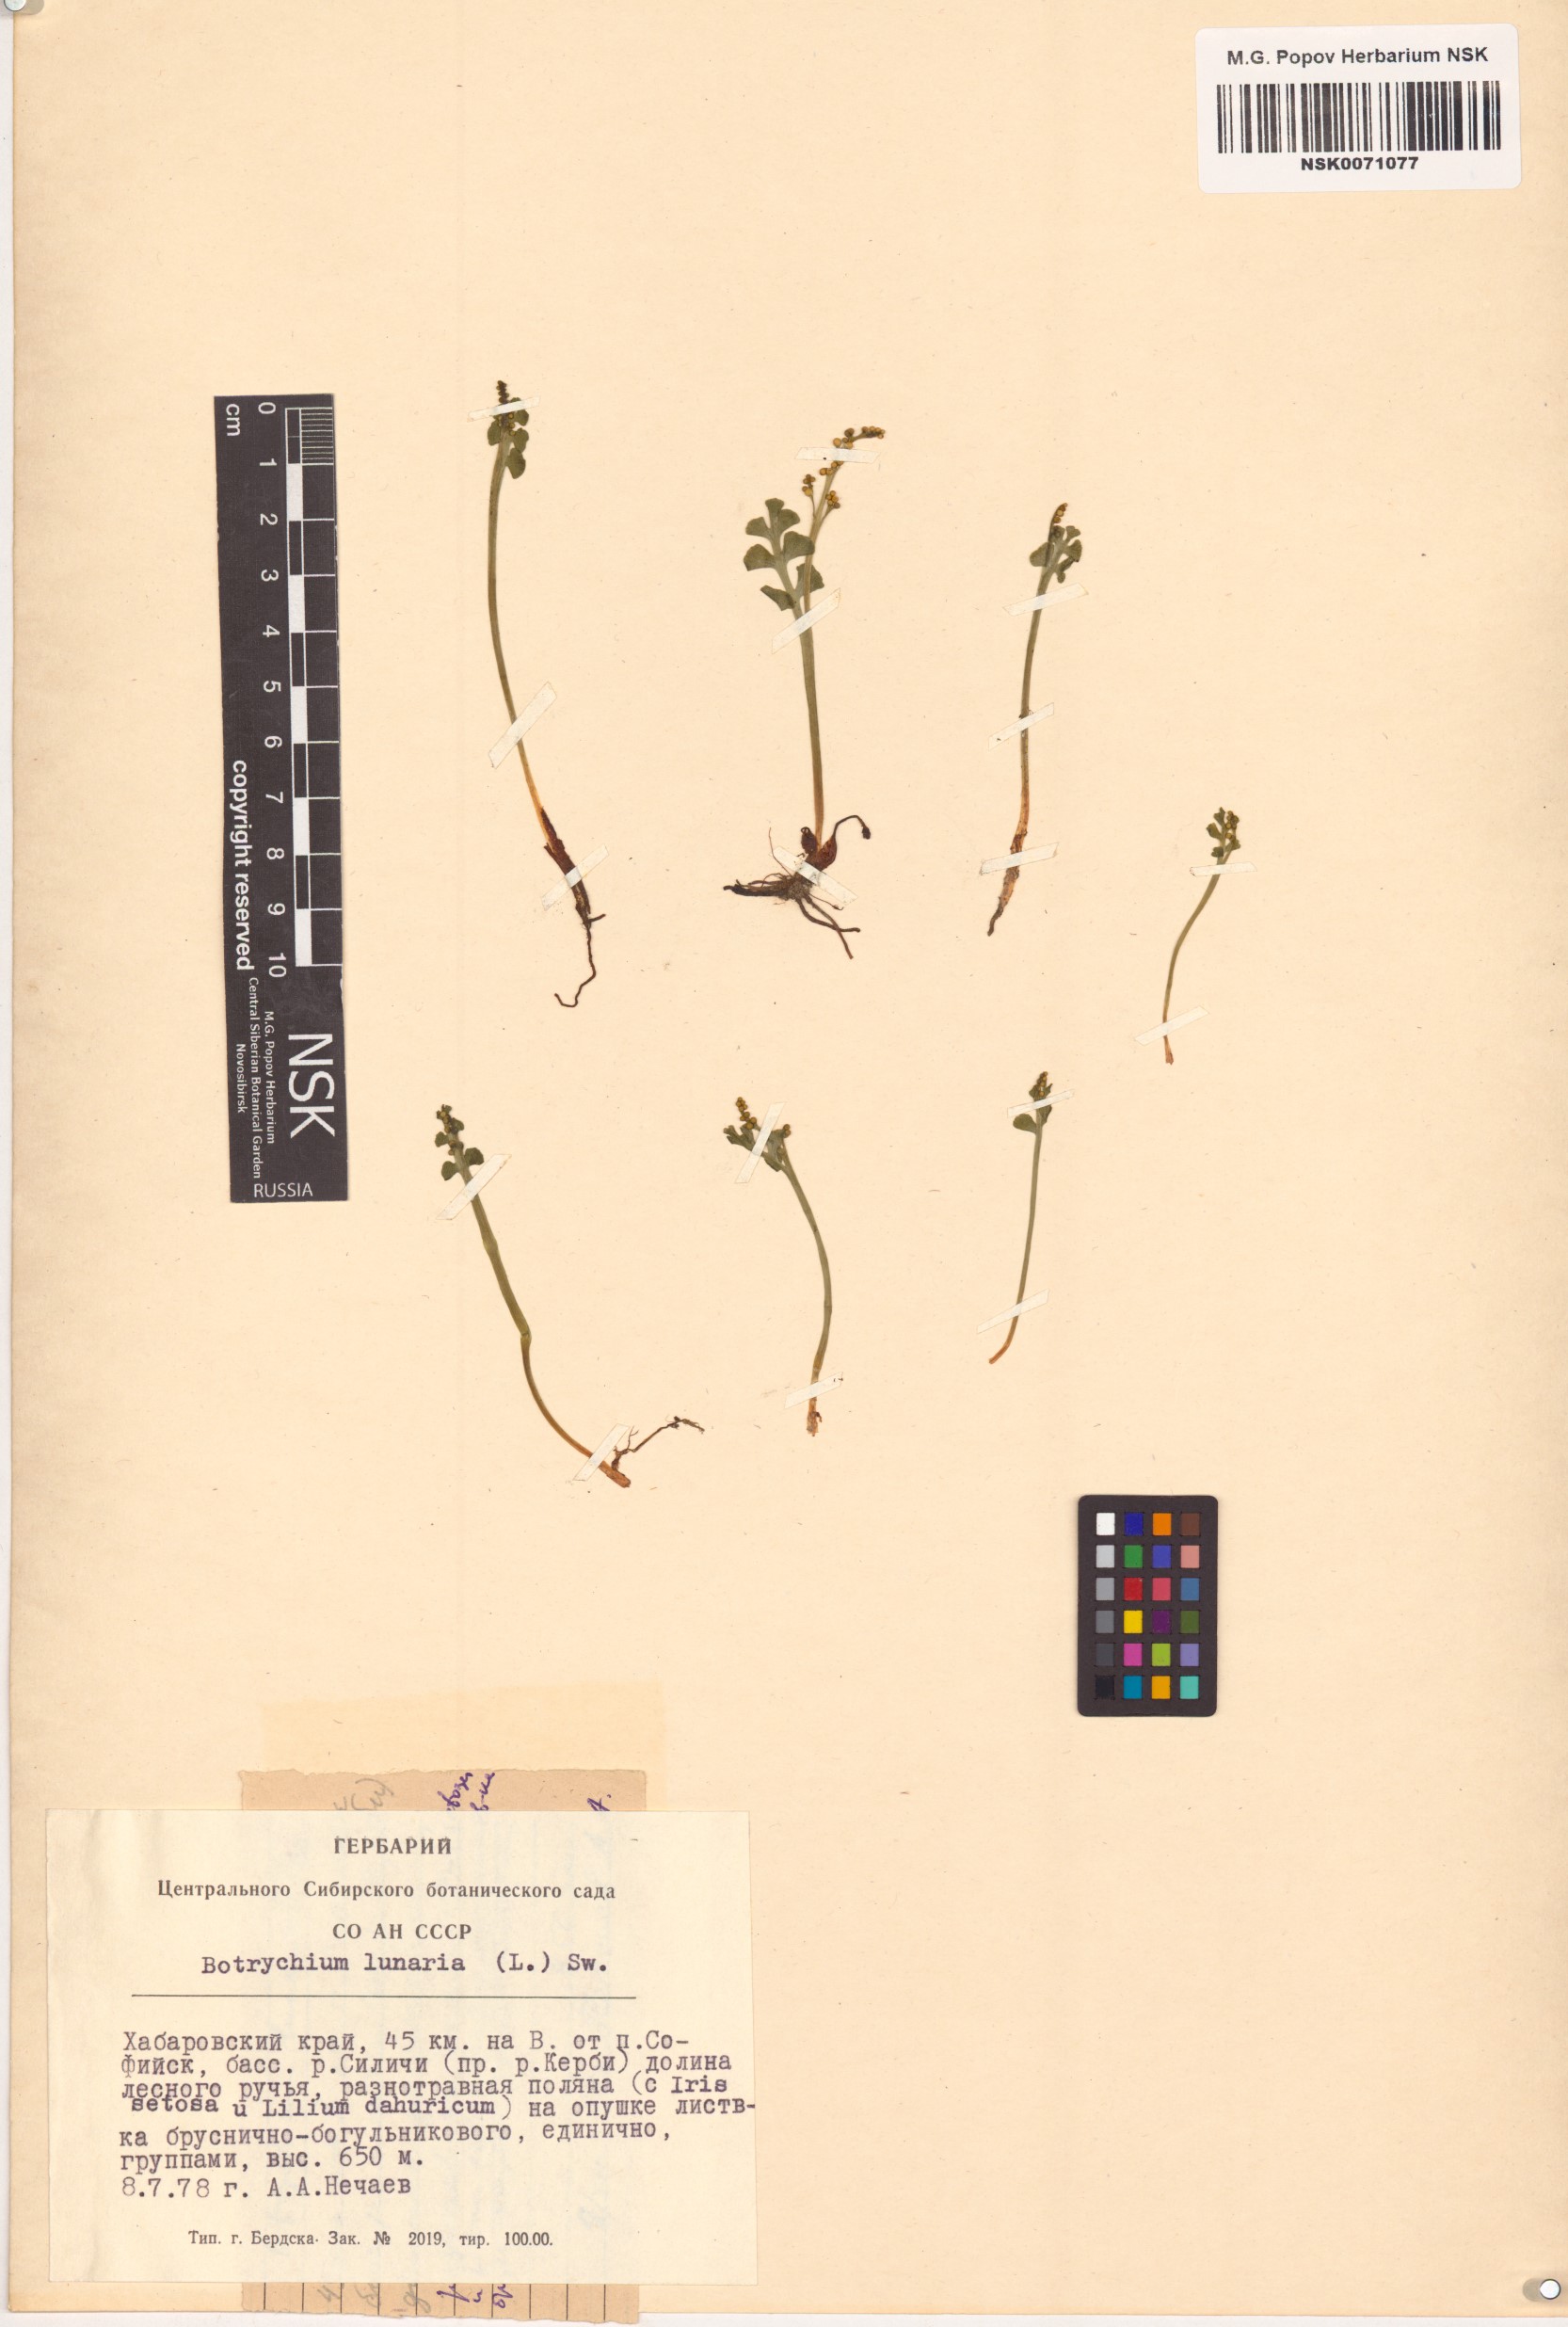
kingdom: Plantae
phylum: Tracheophyta
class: Polypodiopsida
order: Ophioglossales
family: Ophioglossaceae
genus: Botrychium
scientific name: Botrychium lunaria
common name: Moonwort
